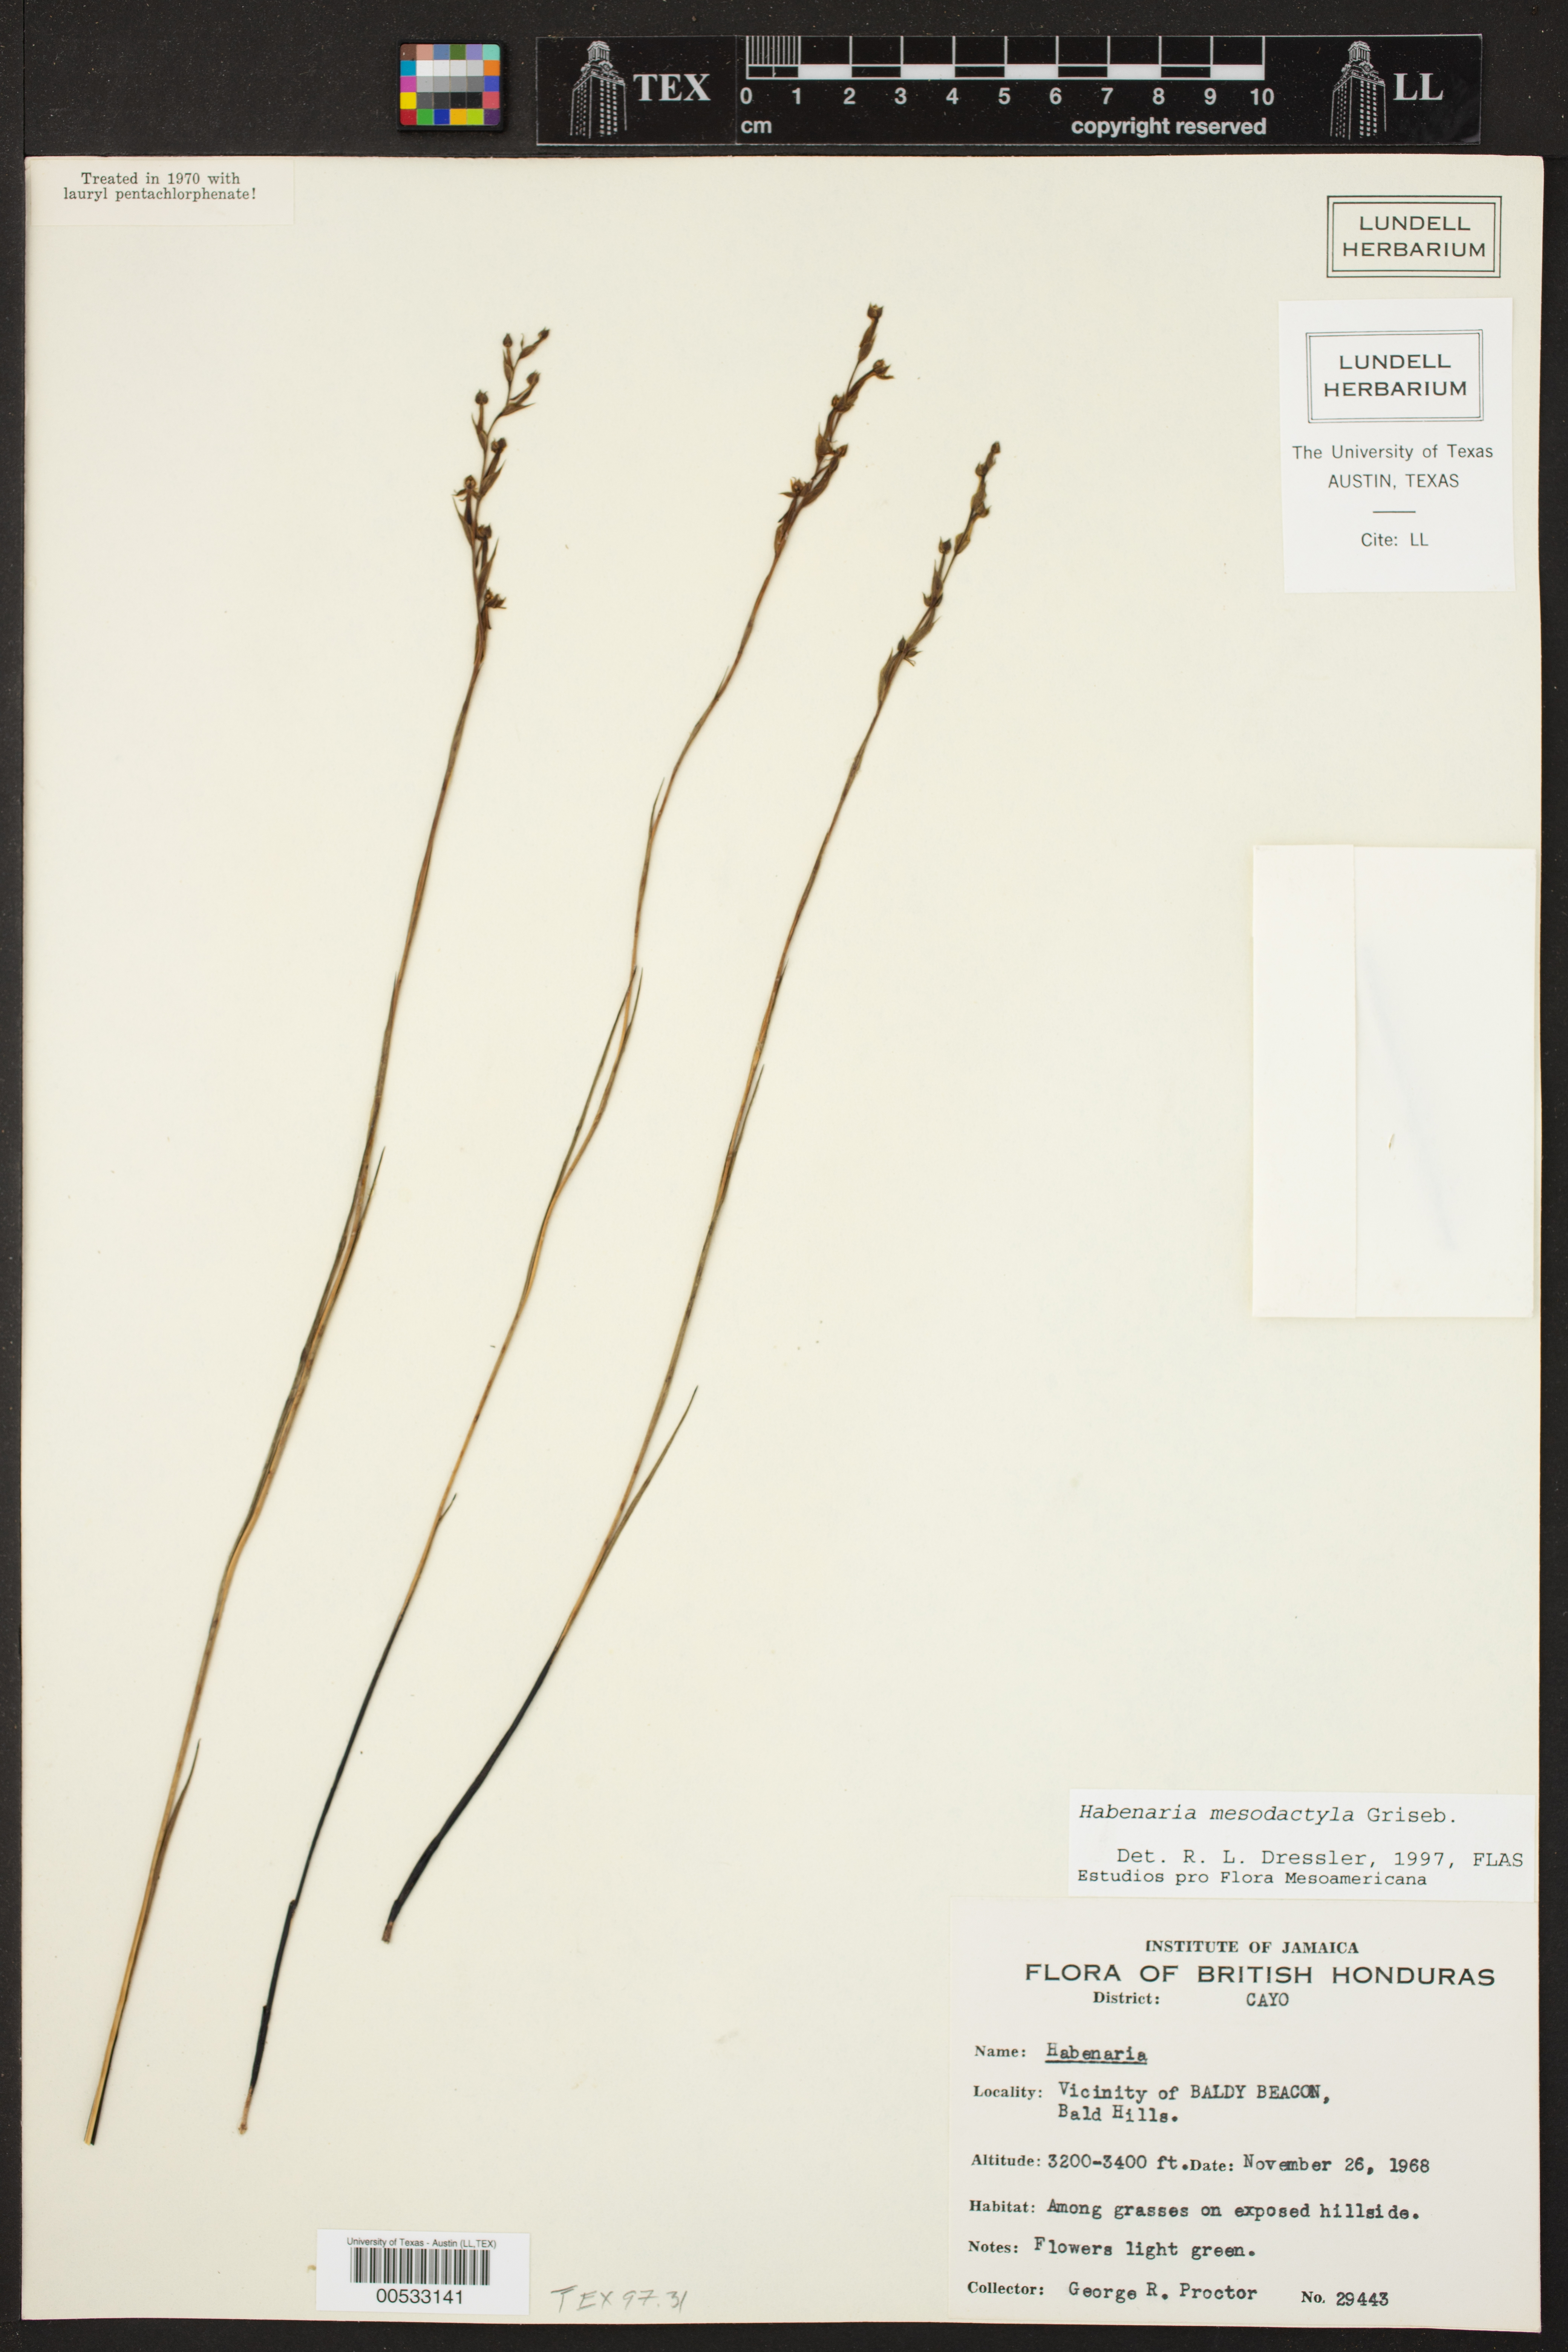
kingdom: Plantae
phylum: Tracheophyta
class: Liliopsida
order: Asparagales
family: Orchidaceae
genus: Habenaria
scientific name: Habenaria mesodactyla
